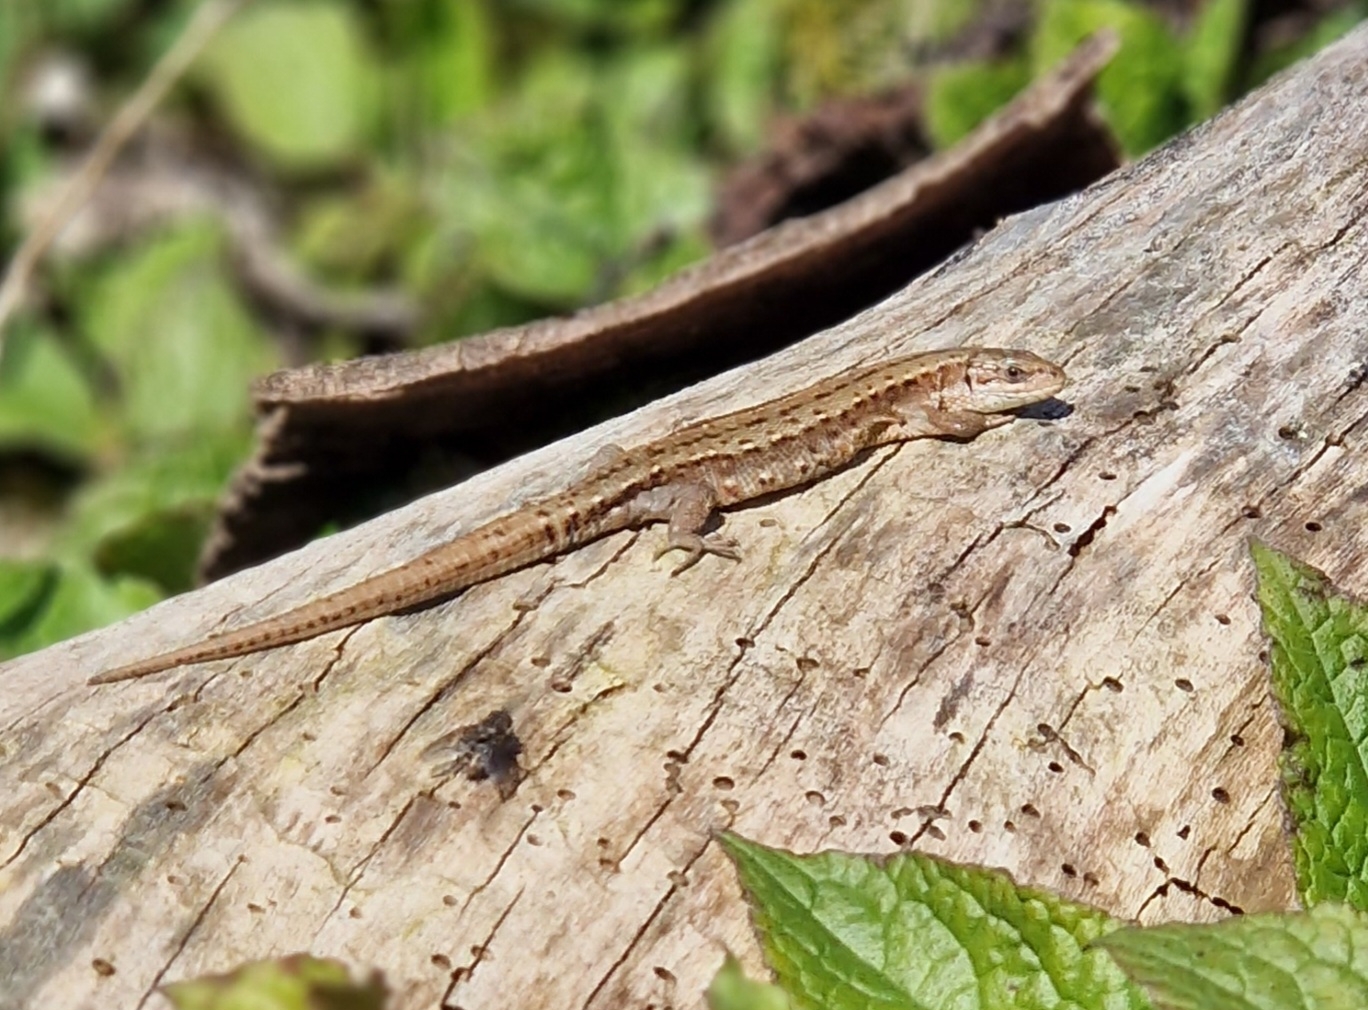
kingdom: Animalia
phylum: Chordata
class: Squamata
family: Lacertidae
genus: Zootoca
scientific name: Zootoca vivipara
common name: Skovfirben
